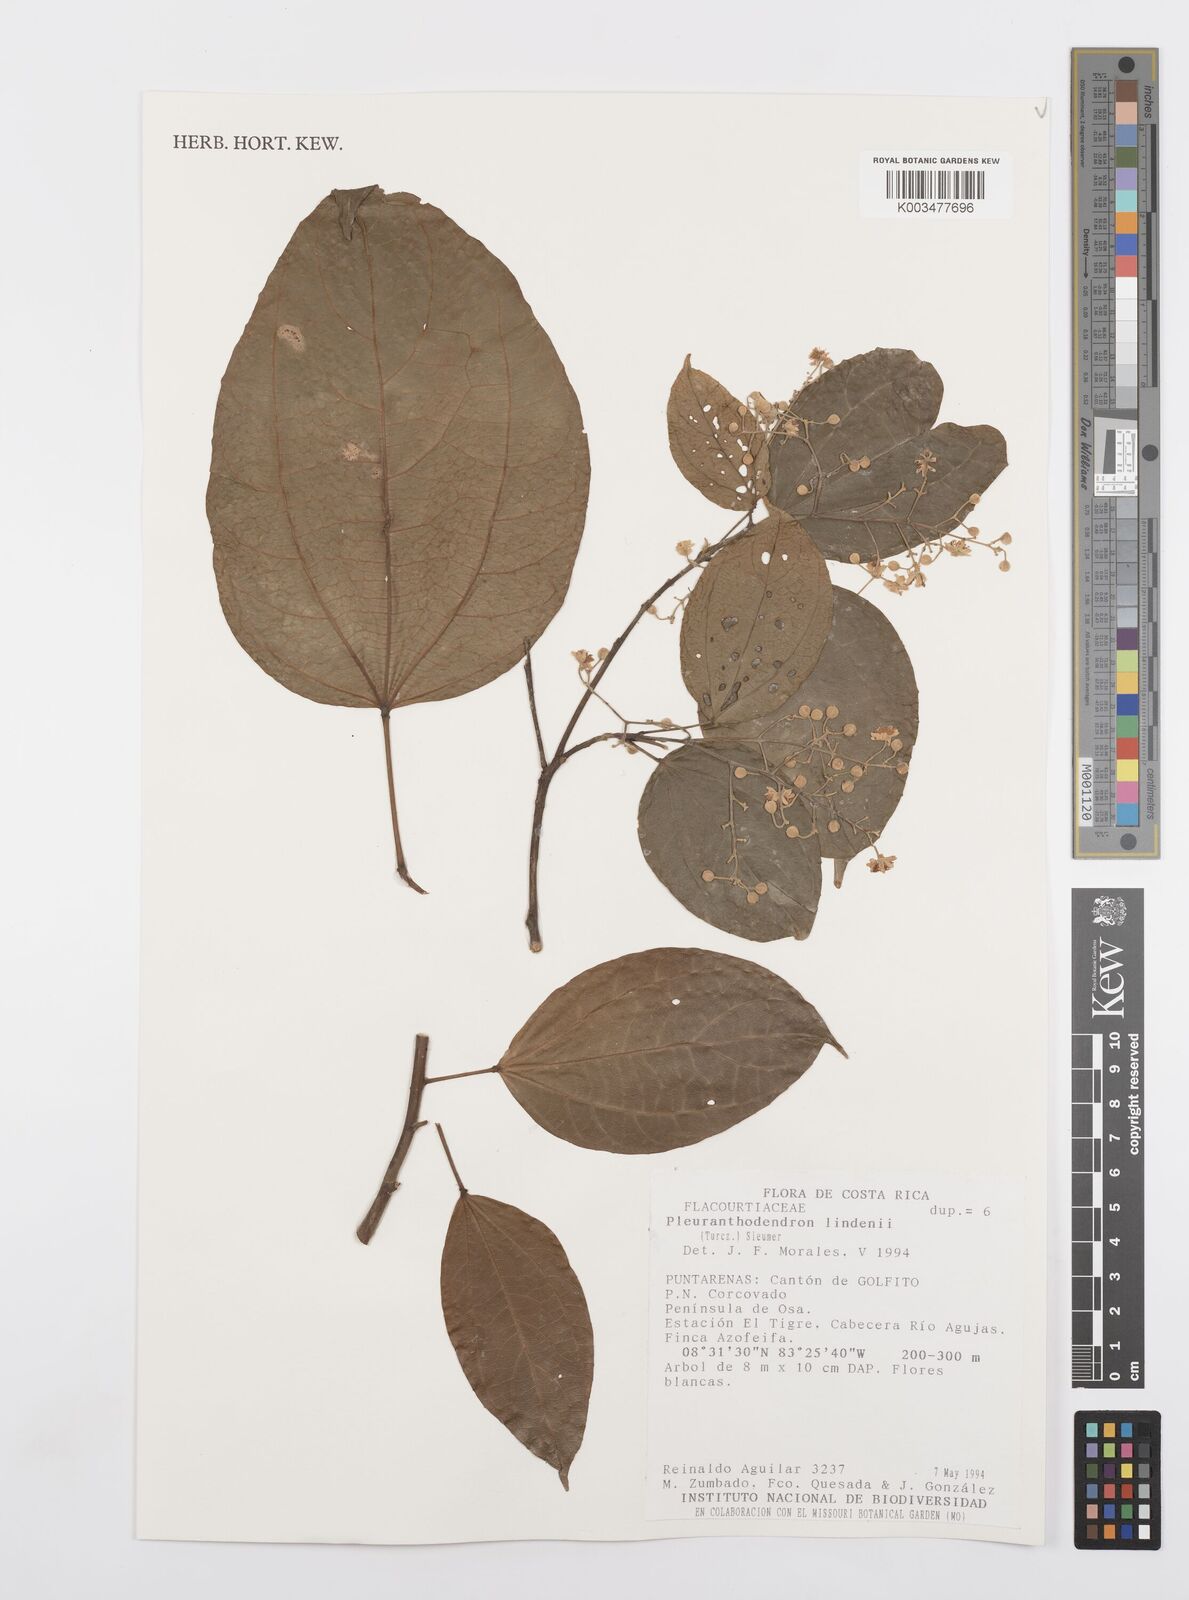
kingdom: Plantae
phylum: Tracheophyta
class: Magnoliopsida
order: Malpighiales
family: Salicaceae
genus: Pleuranthodendron
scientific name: Pleuranthodendron lindenii
